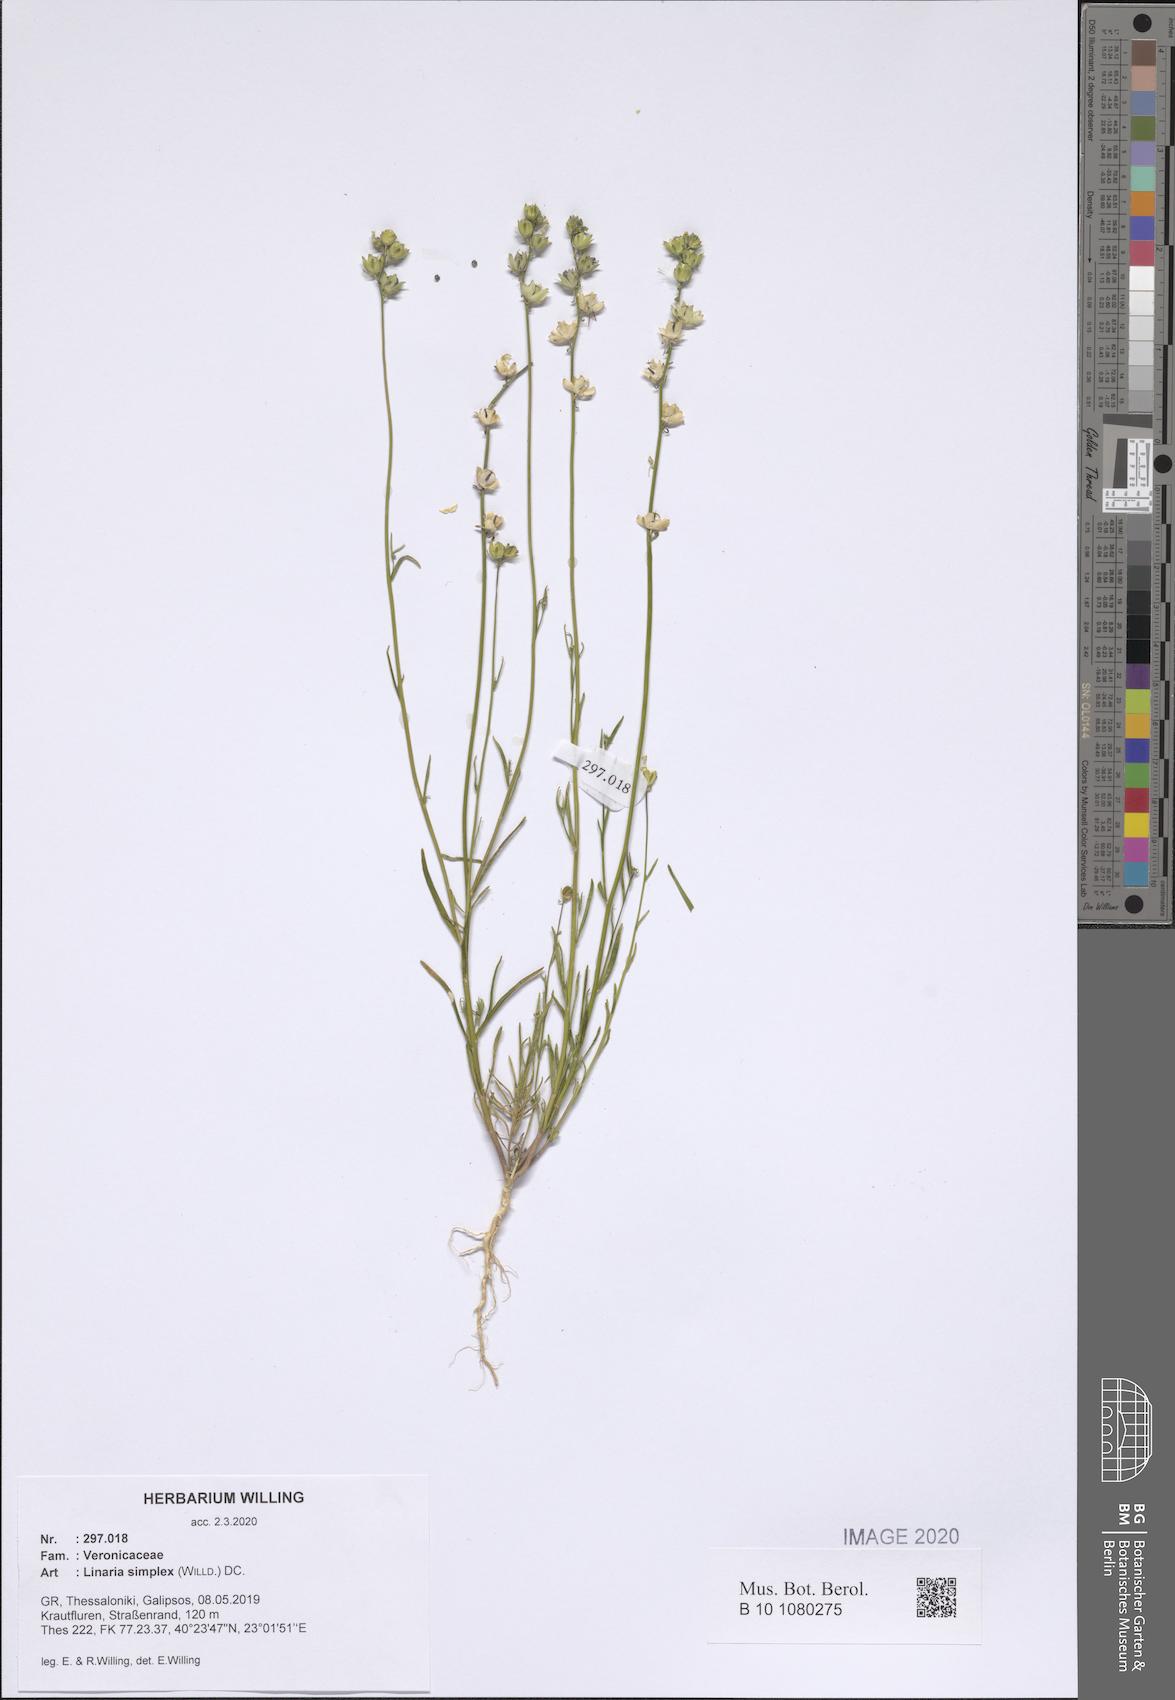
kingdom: Plantae
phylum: Tracheophyta
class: Magnoliopsida
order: Lamiales
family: Plantaginaceae
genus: Linaria
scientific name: Linaria simplex
